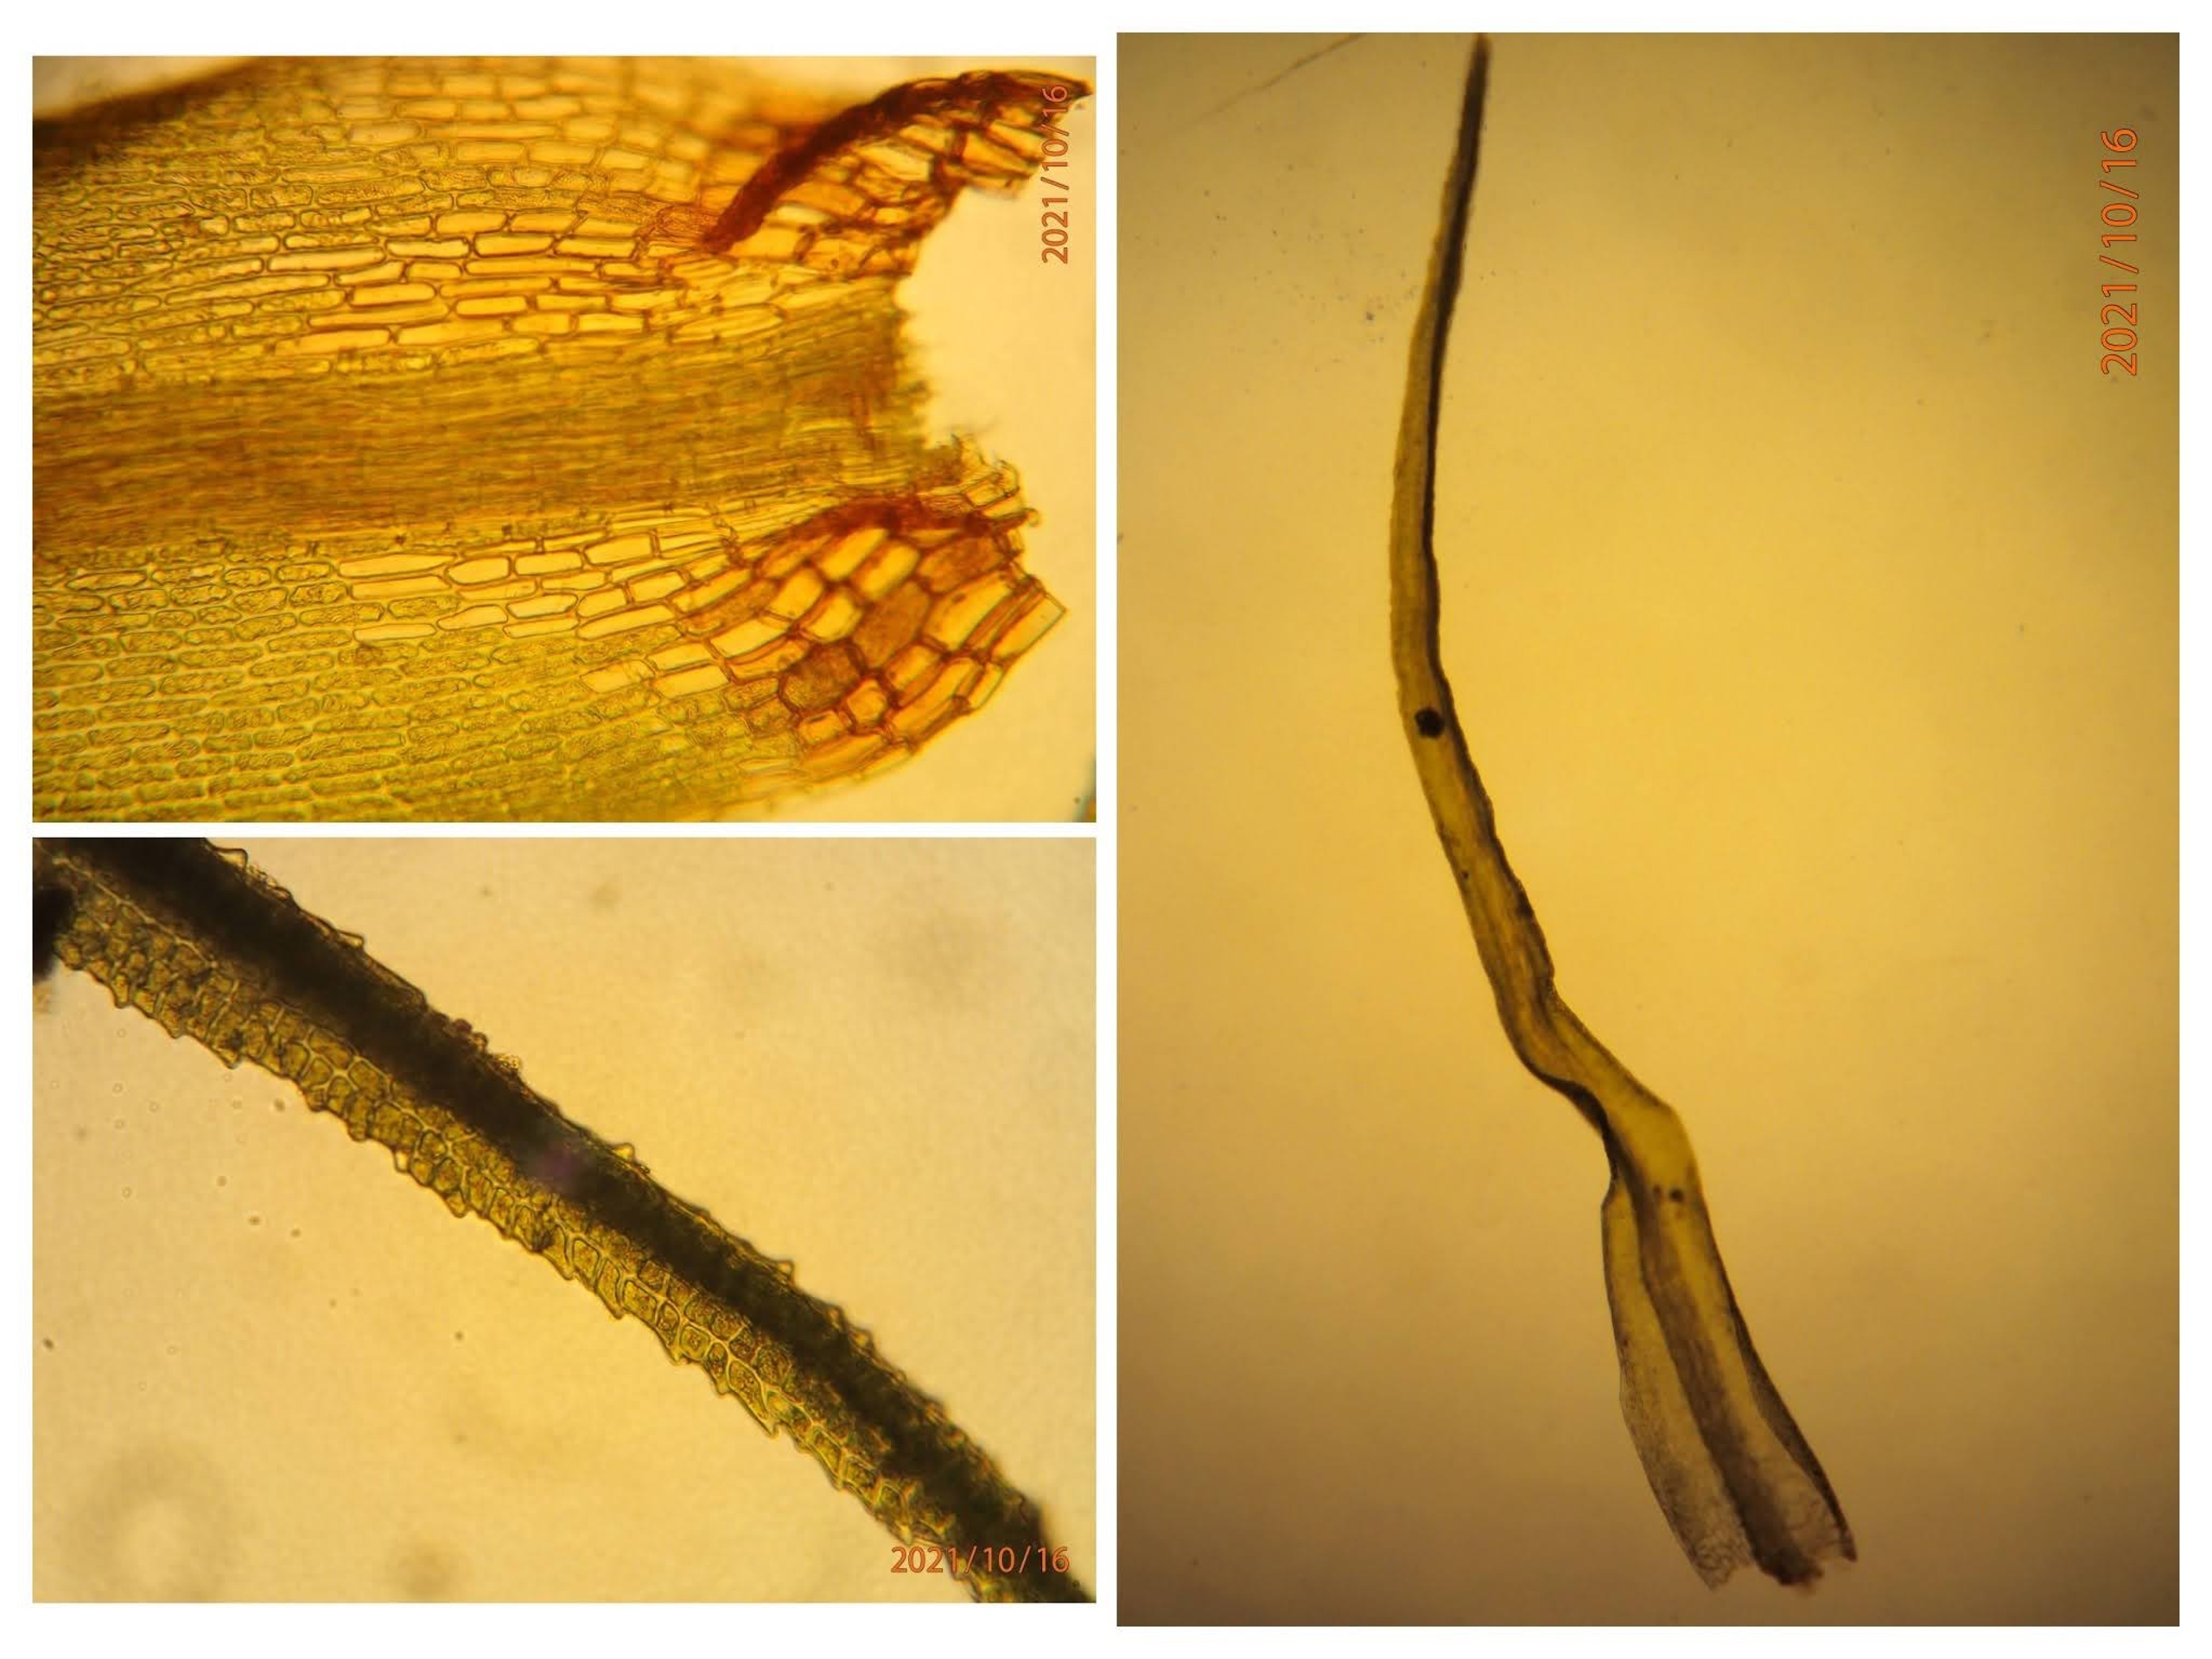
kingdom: Plantae
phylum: Bryophyta
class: Bryopsida
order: Dicranales
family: Dicranaceae
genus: Orthodicranum
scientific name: Orthodicranum montanum
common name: Tæt tyndvinge
